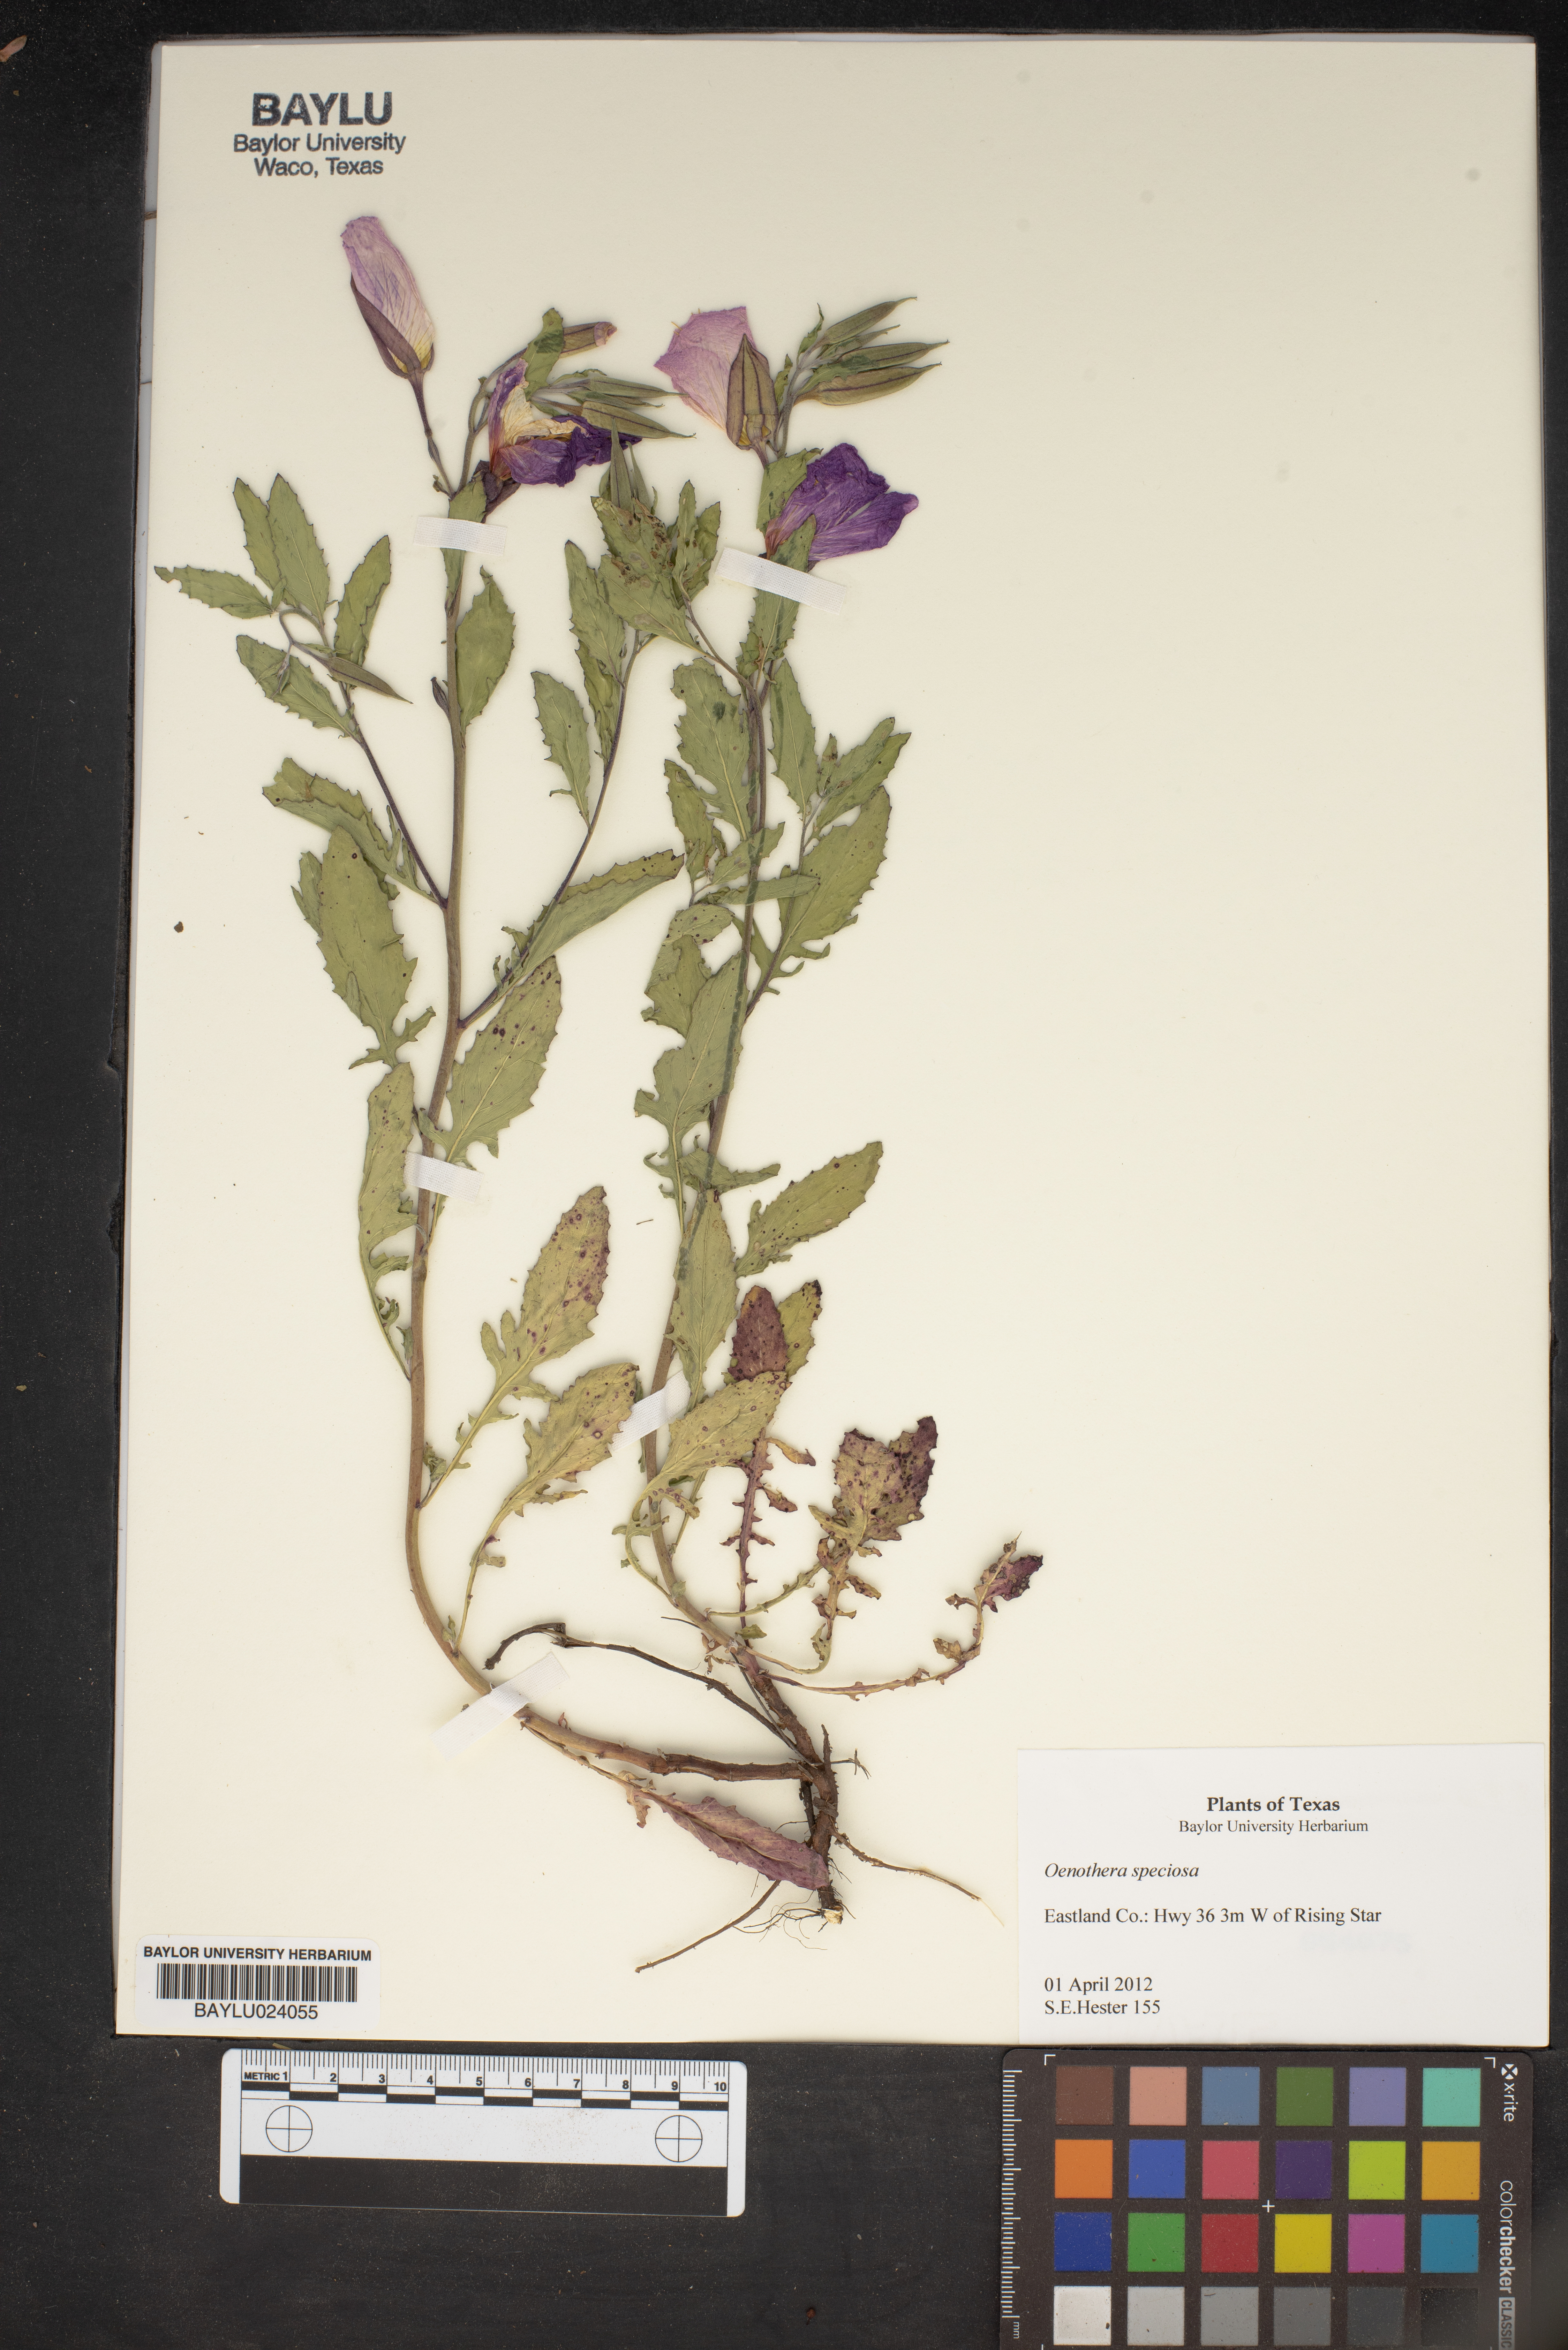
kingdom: Plantae
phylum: Tracheophyta
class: Magnoliopsida
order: Myrtales
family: Onagraceae
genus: Oenothera
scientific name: Oenothera speciosa
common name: White evening-primrose
